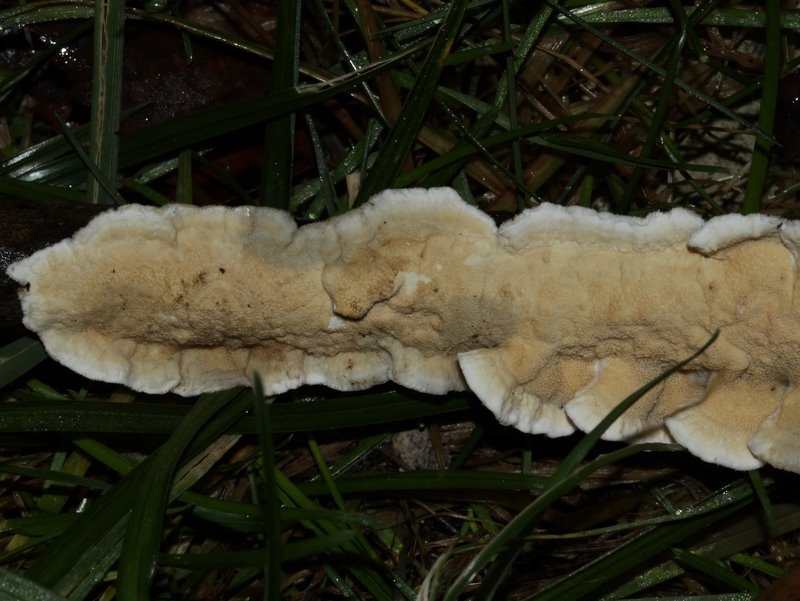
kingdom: Fungi
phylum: Basidiomycota
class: Agaricomycetes
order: Polyporales
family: Irpicaceae
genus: Byssomerulius
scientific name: Byssomerulius corium
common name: læder-åresvamp
